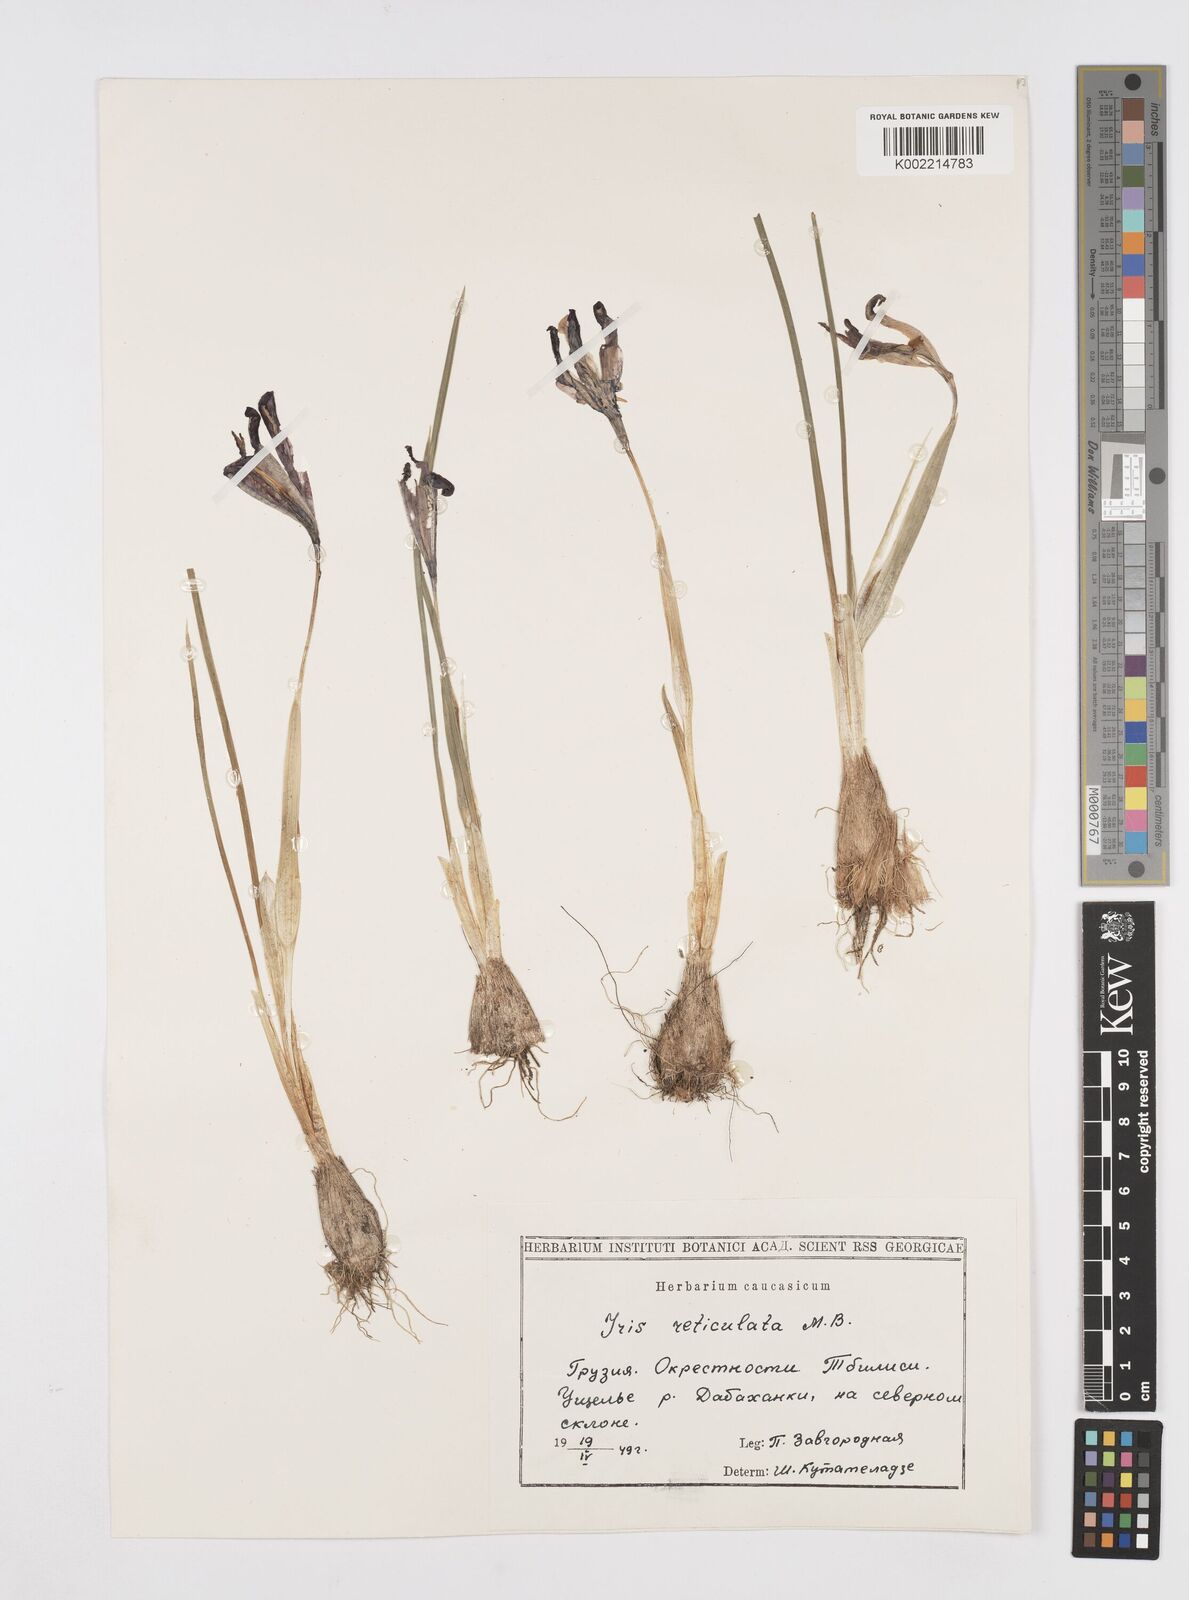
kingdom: Plantae
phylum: Tracheophyta
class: Liliopsida
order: Asparagales
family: Iridaceae
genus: Iris
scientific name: Iris reticulata
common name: Netted iris
